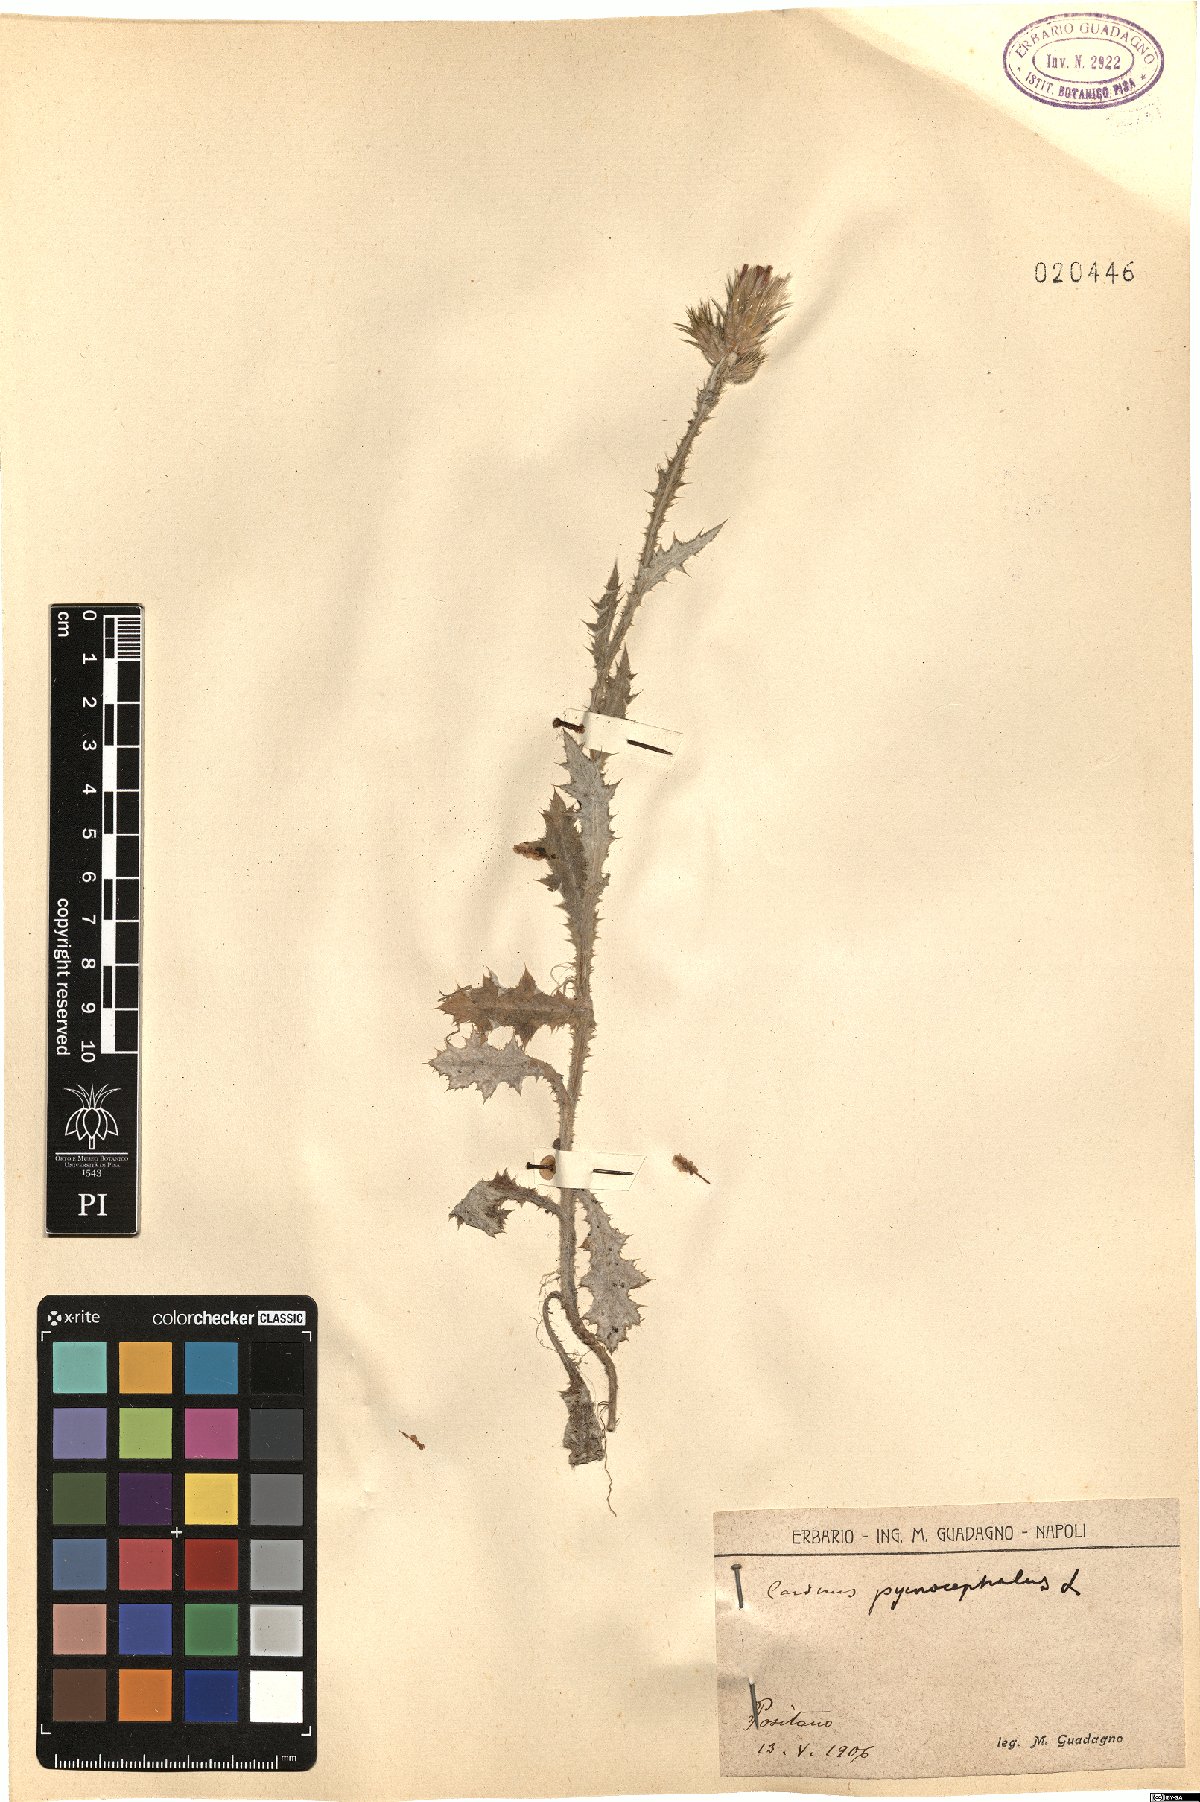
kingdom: Plantae
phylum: Tracheophyta
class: Magnoliopsida
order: Asterales
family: Asteraceae
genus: Carduus
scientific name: Carduus pycnocephalus
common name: Plymouth thistle
